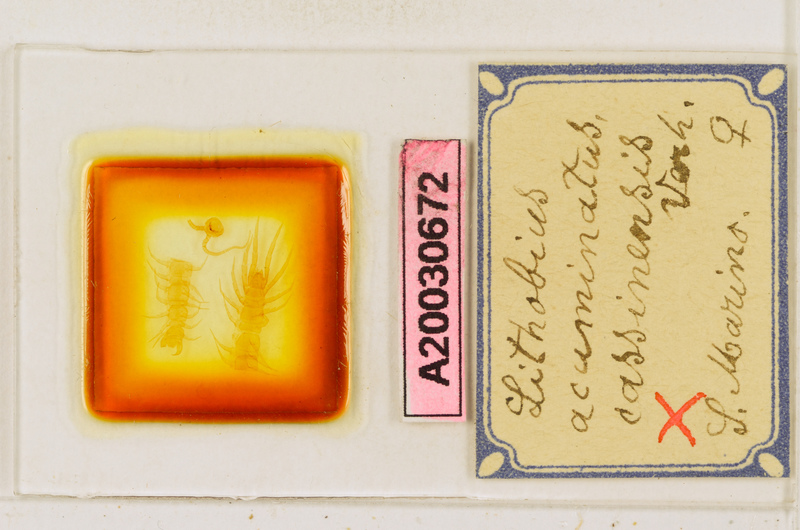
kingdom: Animalia
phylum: Arthropoda
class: Chilopoda
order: Lithobiomorpha
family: Lithobiidae
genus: Lithobius
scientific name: Lithobius acuminatus
